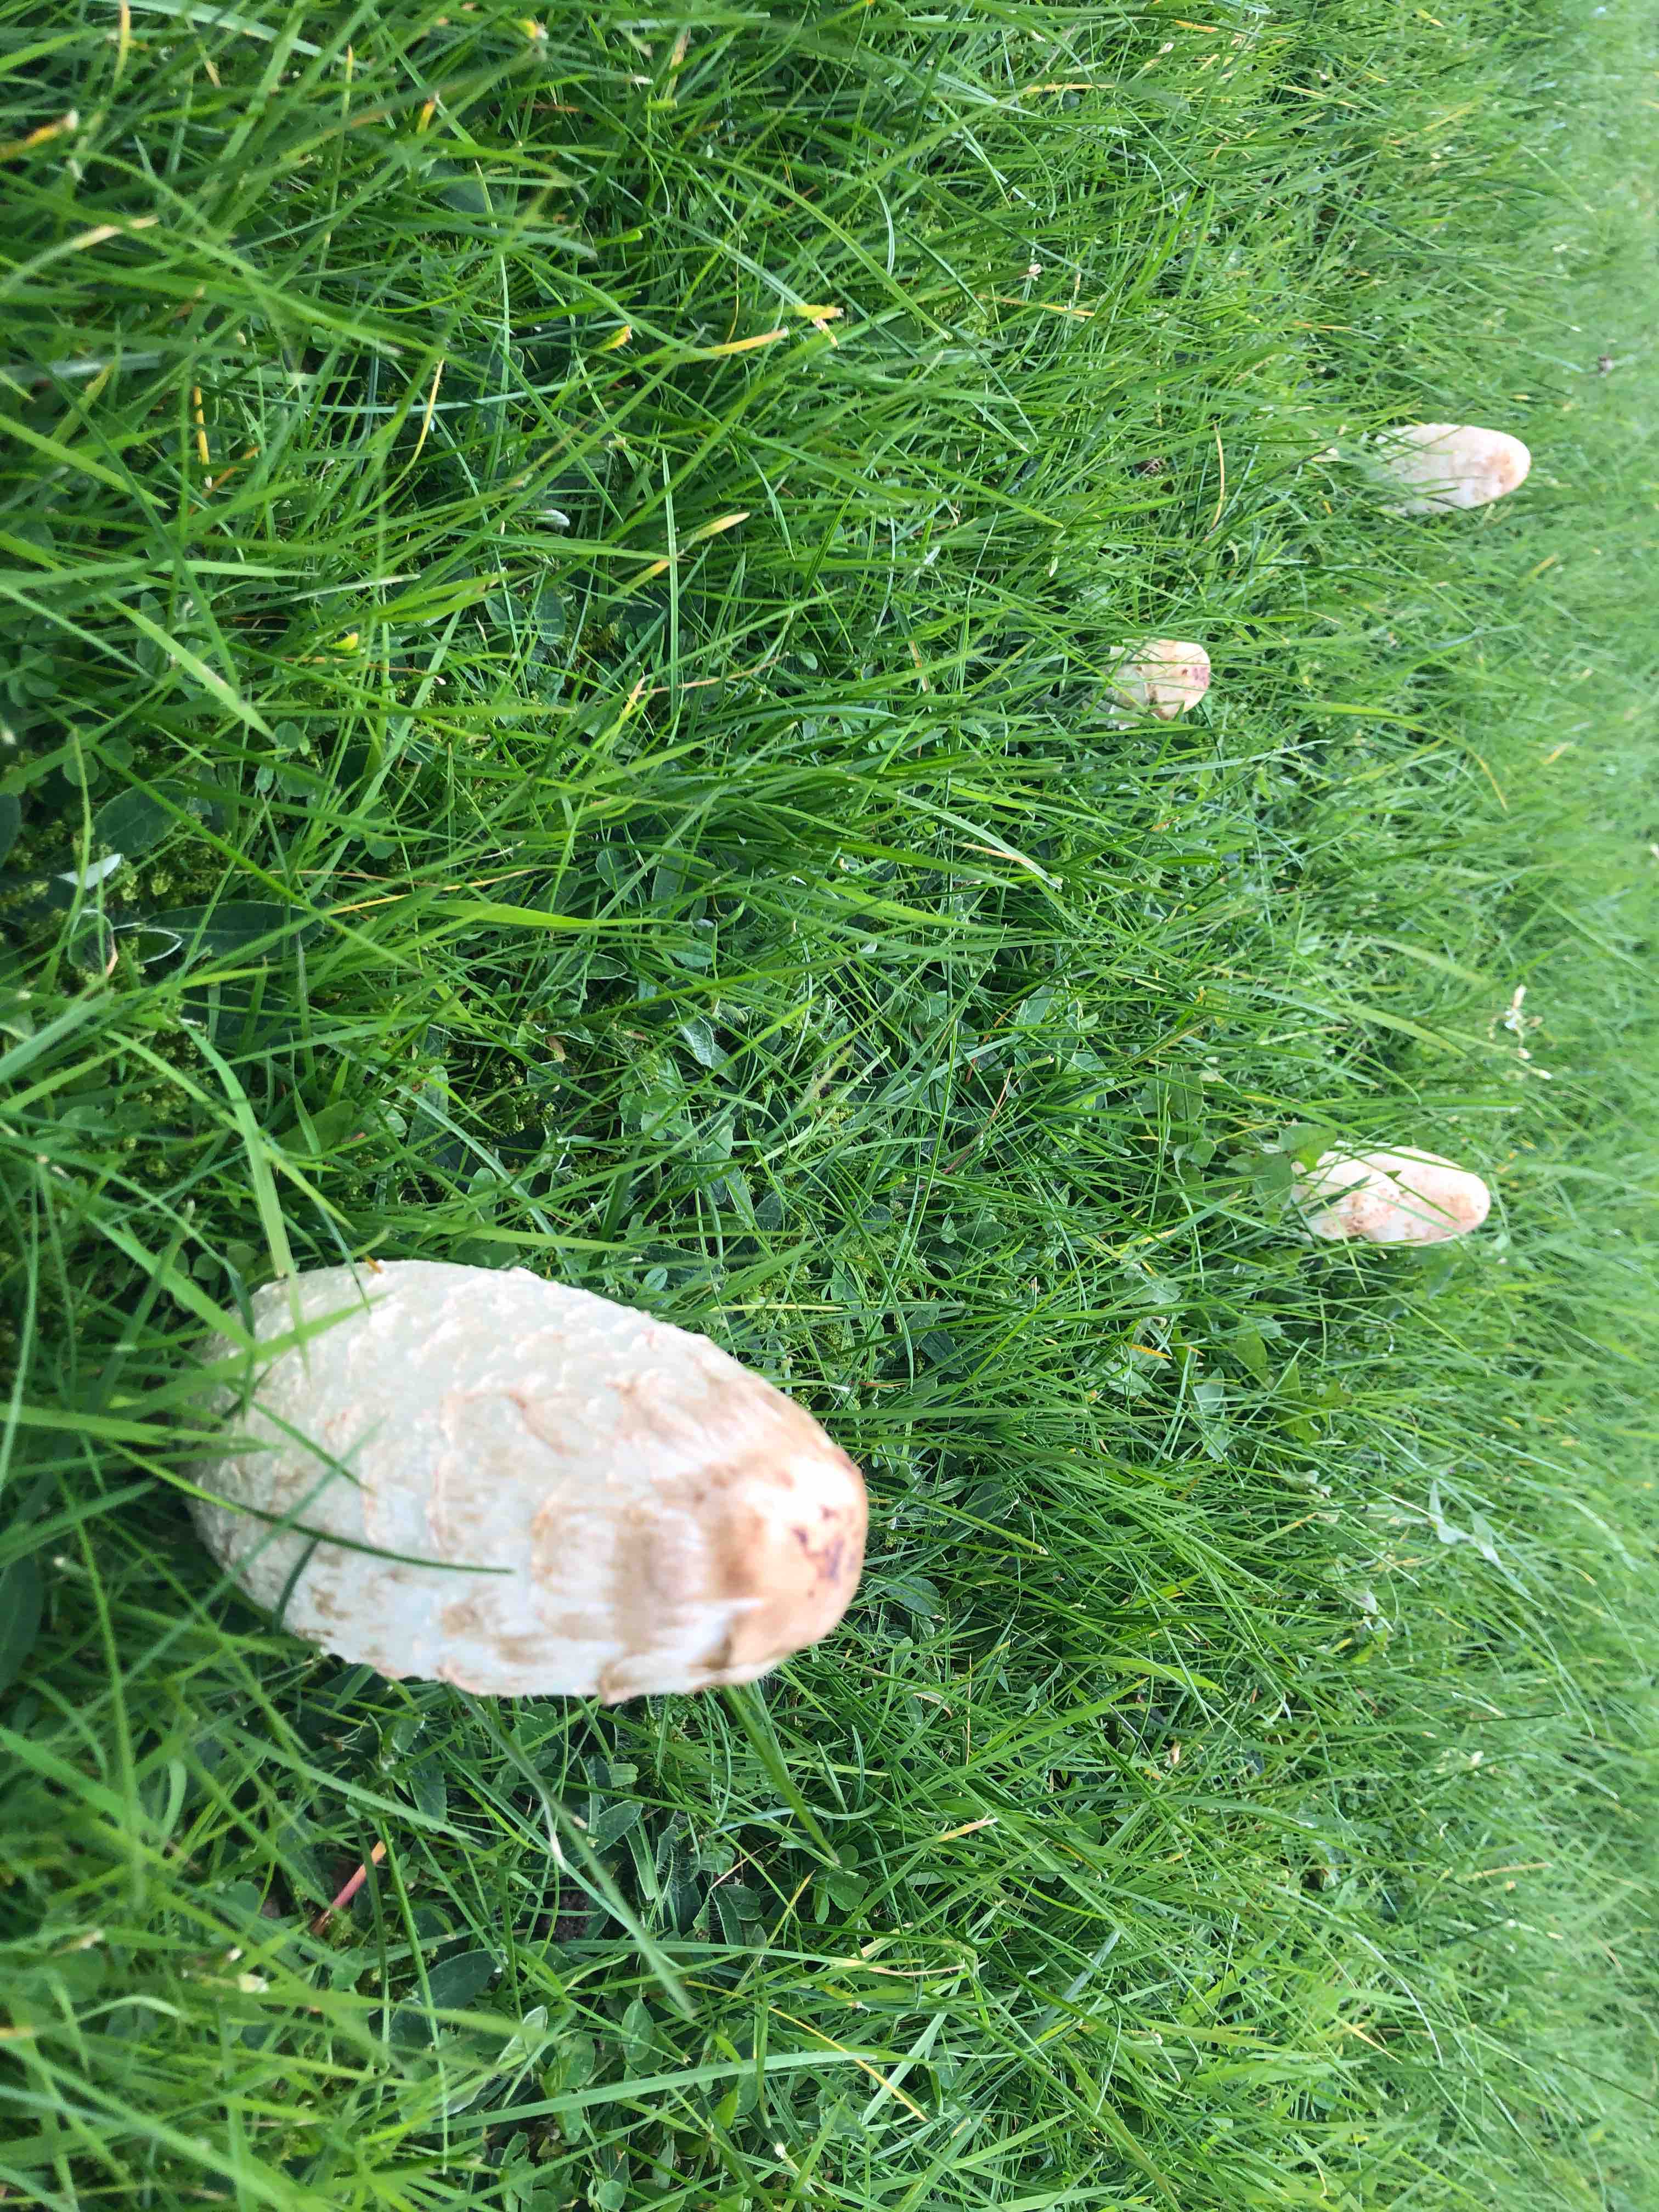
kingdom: Fungi
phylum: Basidiomycota
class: Agaricomycetes
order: Agaricales
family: Agaricaceae
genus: Coprinus
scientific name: Coprinus comatus
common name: stor parykhat
